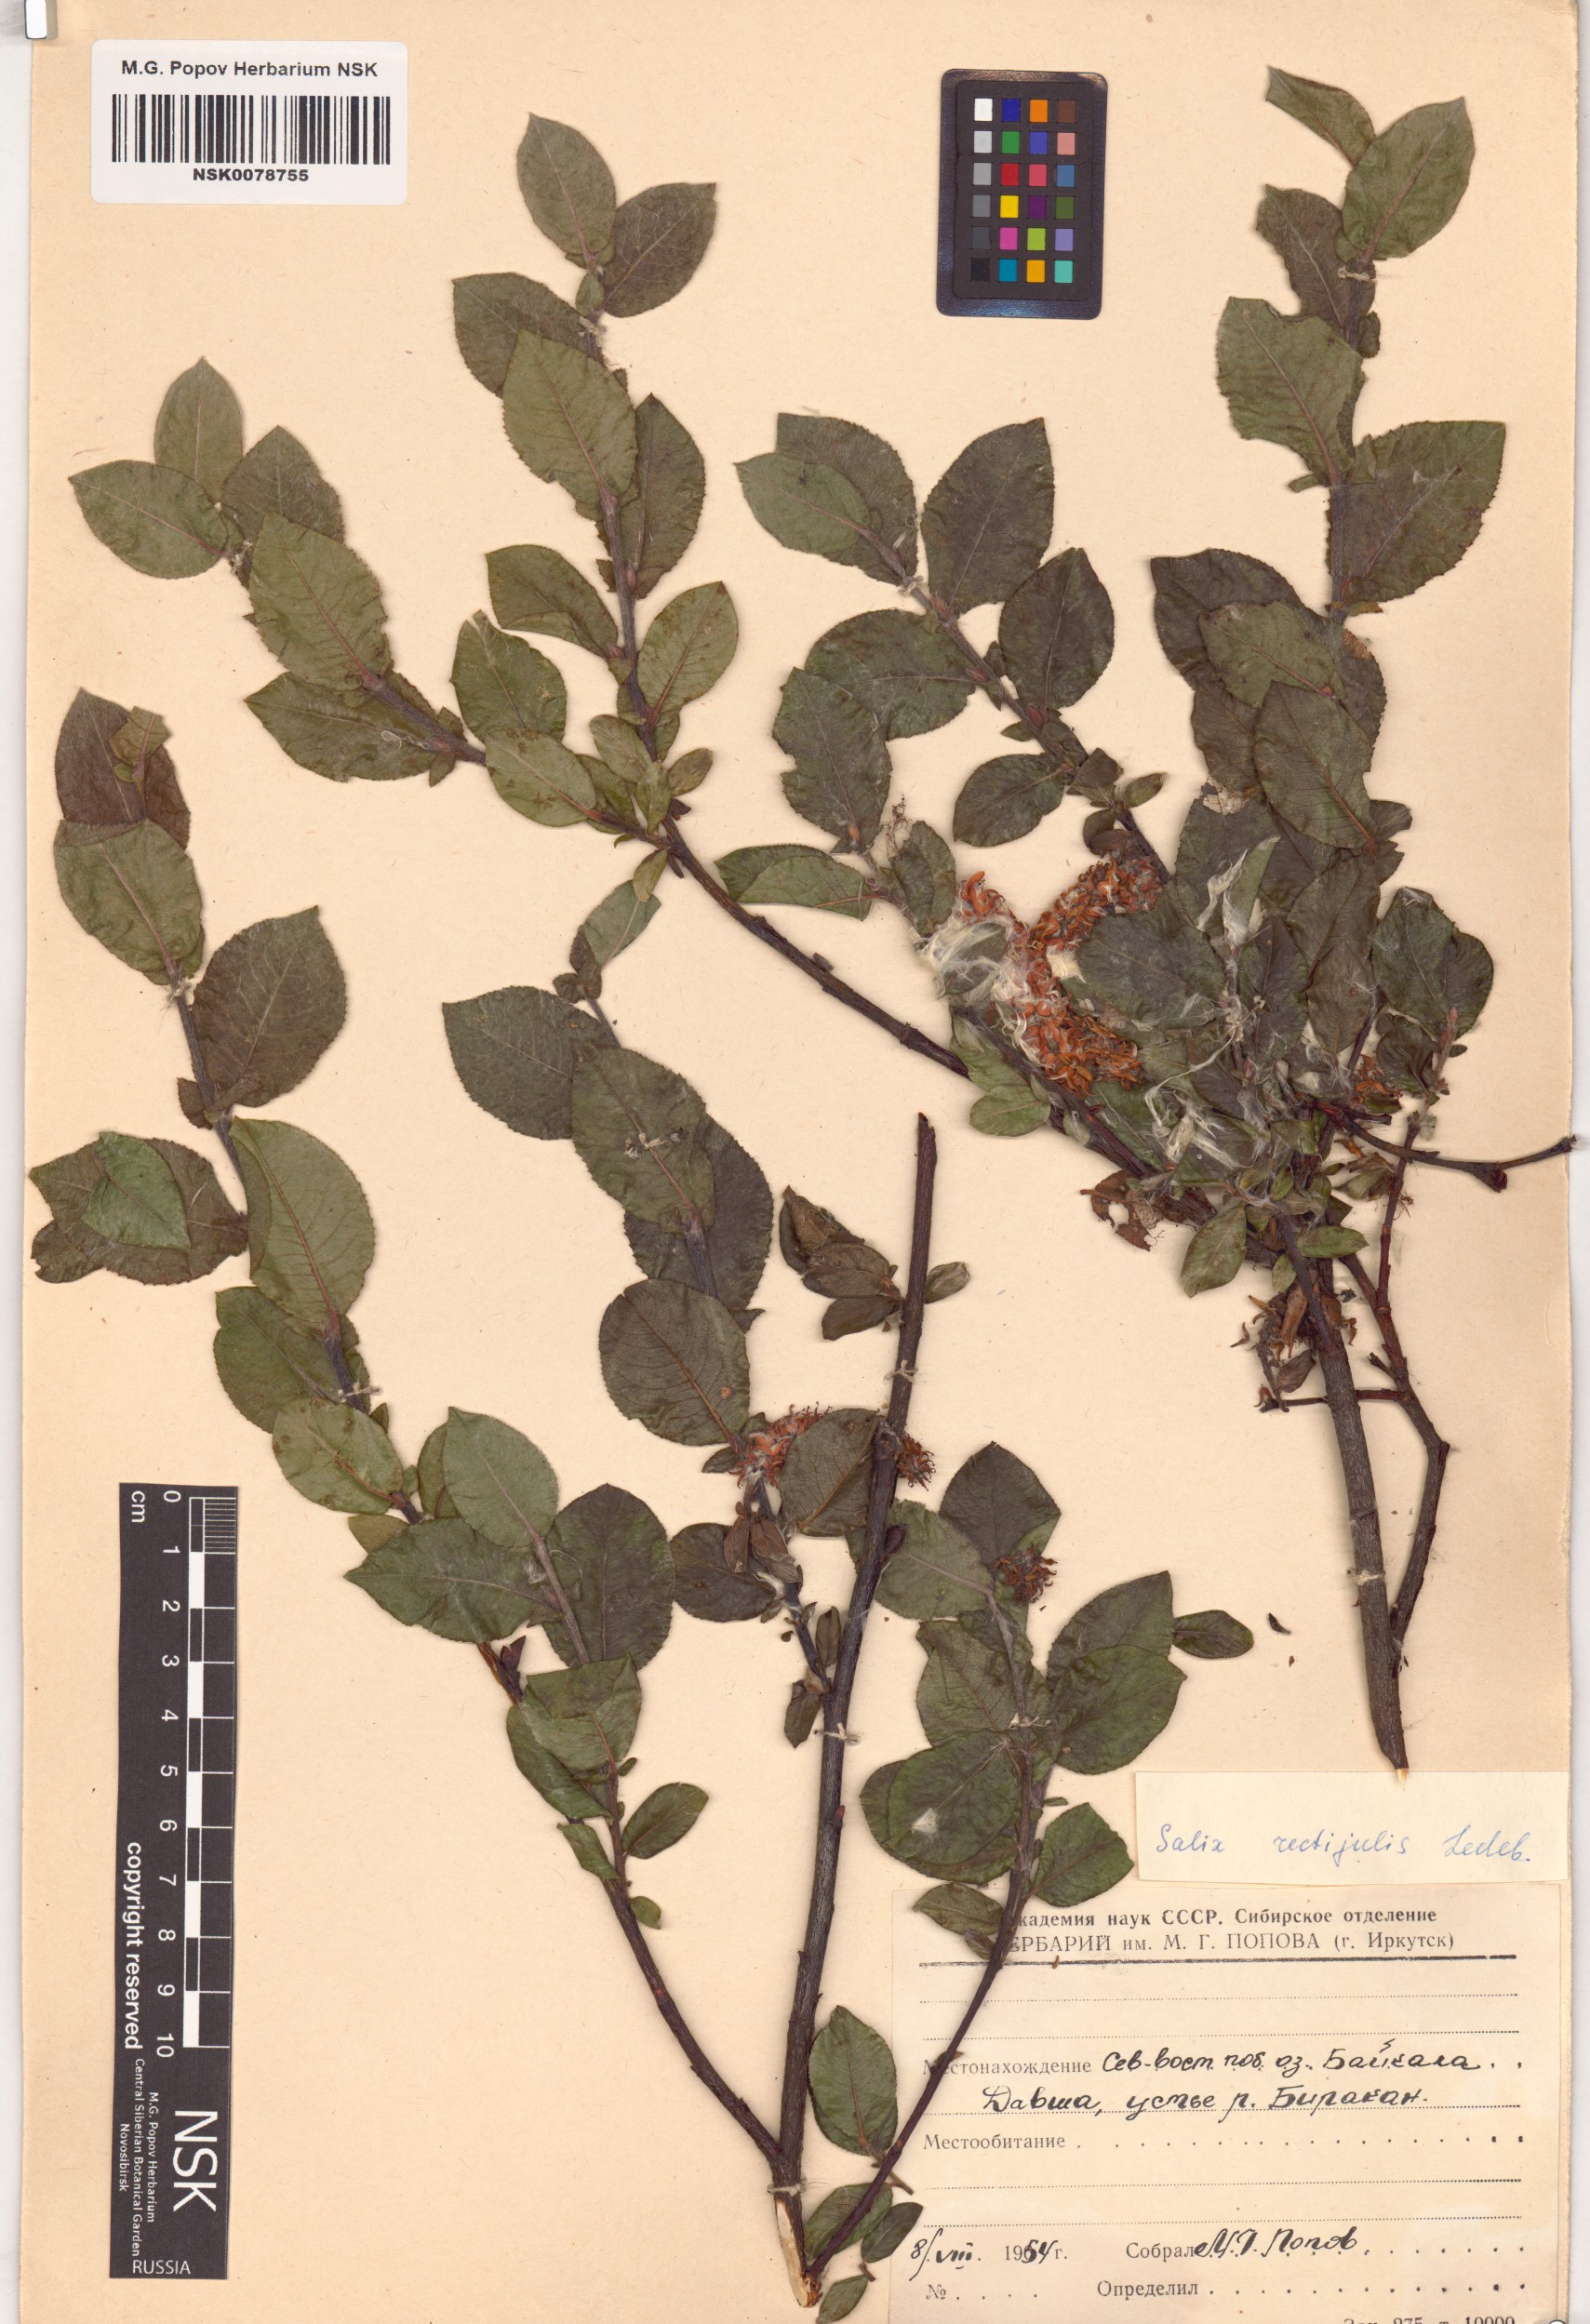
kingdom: Plantae
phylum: Tracheophyta
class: Magnoliopsida
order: Malpighiales
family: Salicaceae
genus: Salix
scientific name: Salix rectijulis
